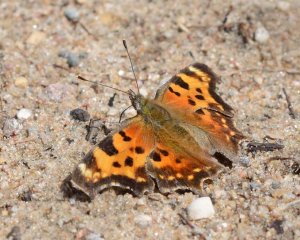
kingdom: Animalia
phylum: Arthropoda
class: Insecta
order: Lepidoptera
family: Nymphalidae
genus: Polygonia
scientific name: Polygonia faunus
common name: Green Comma
